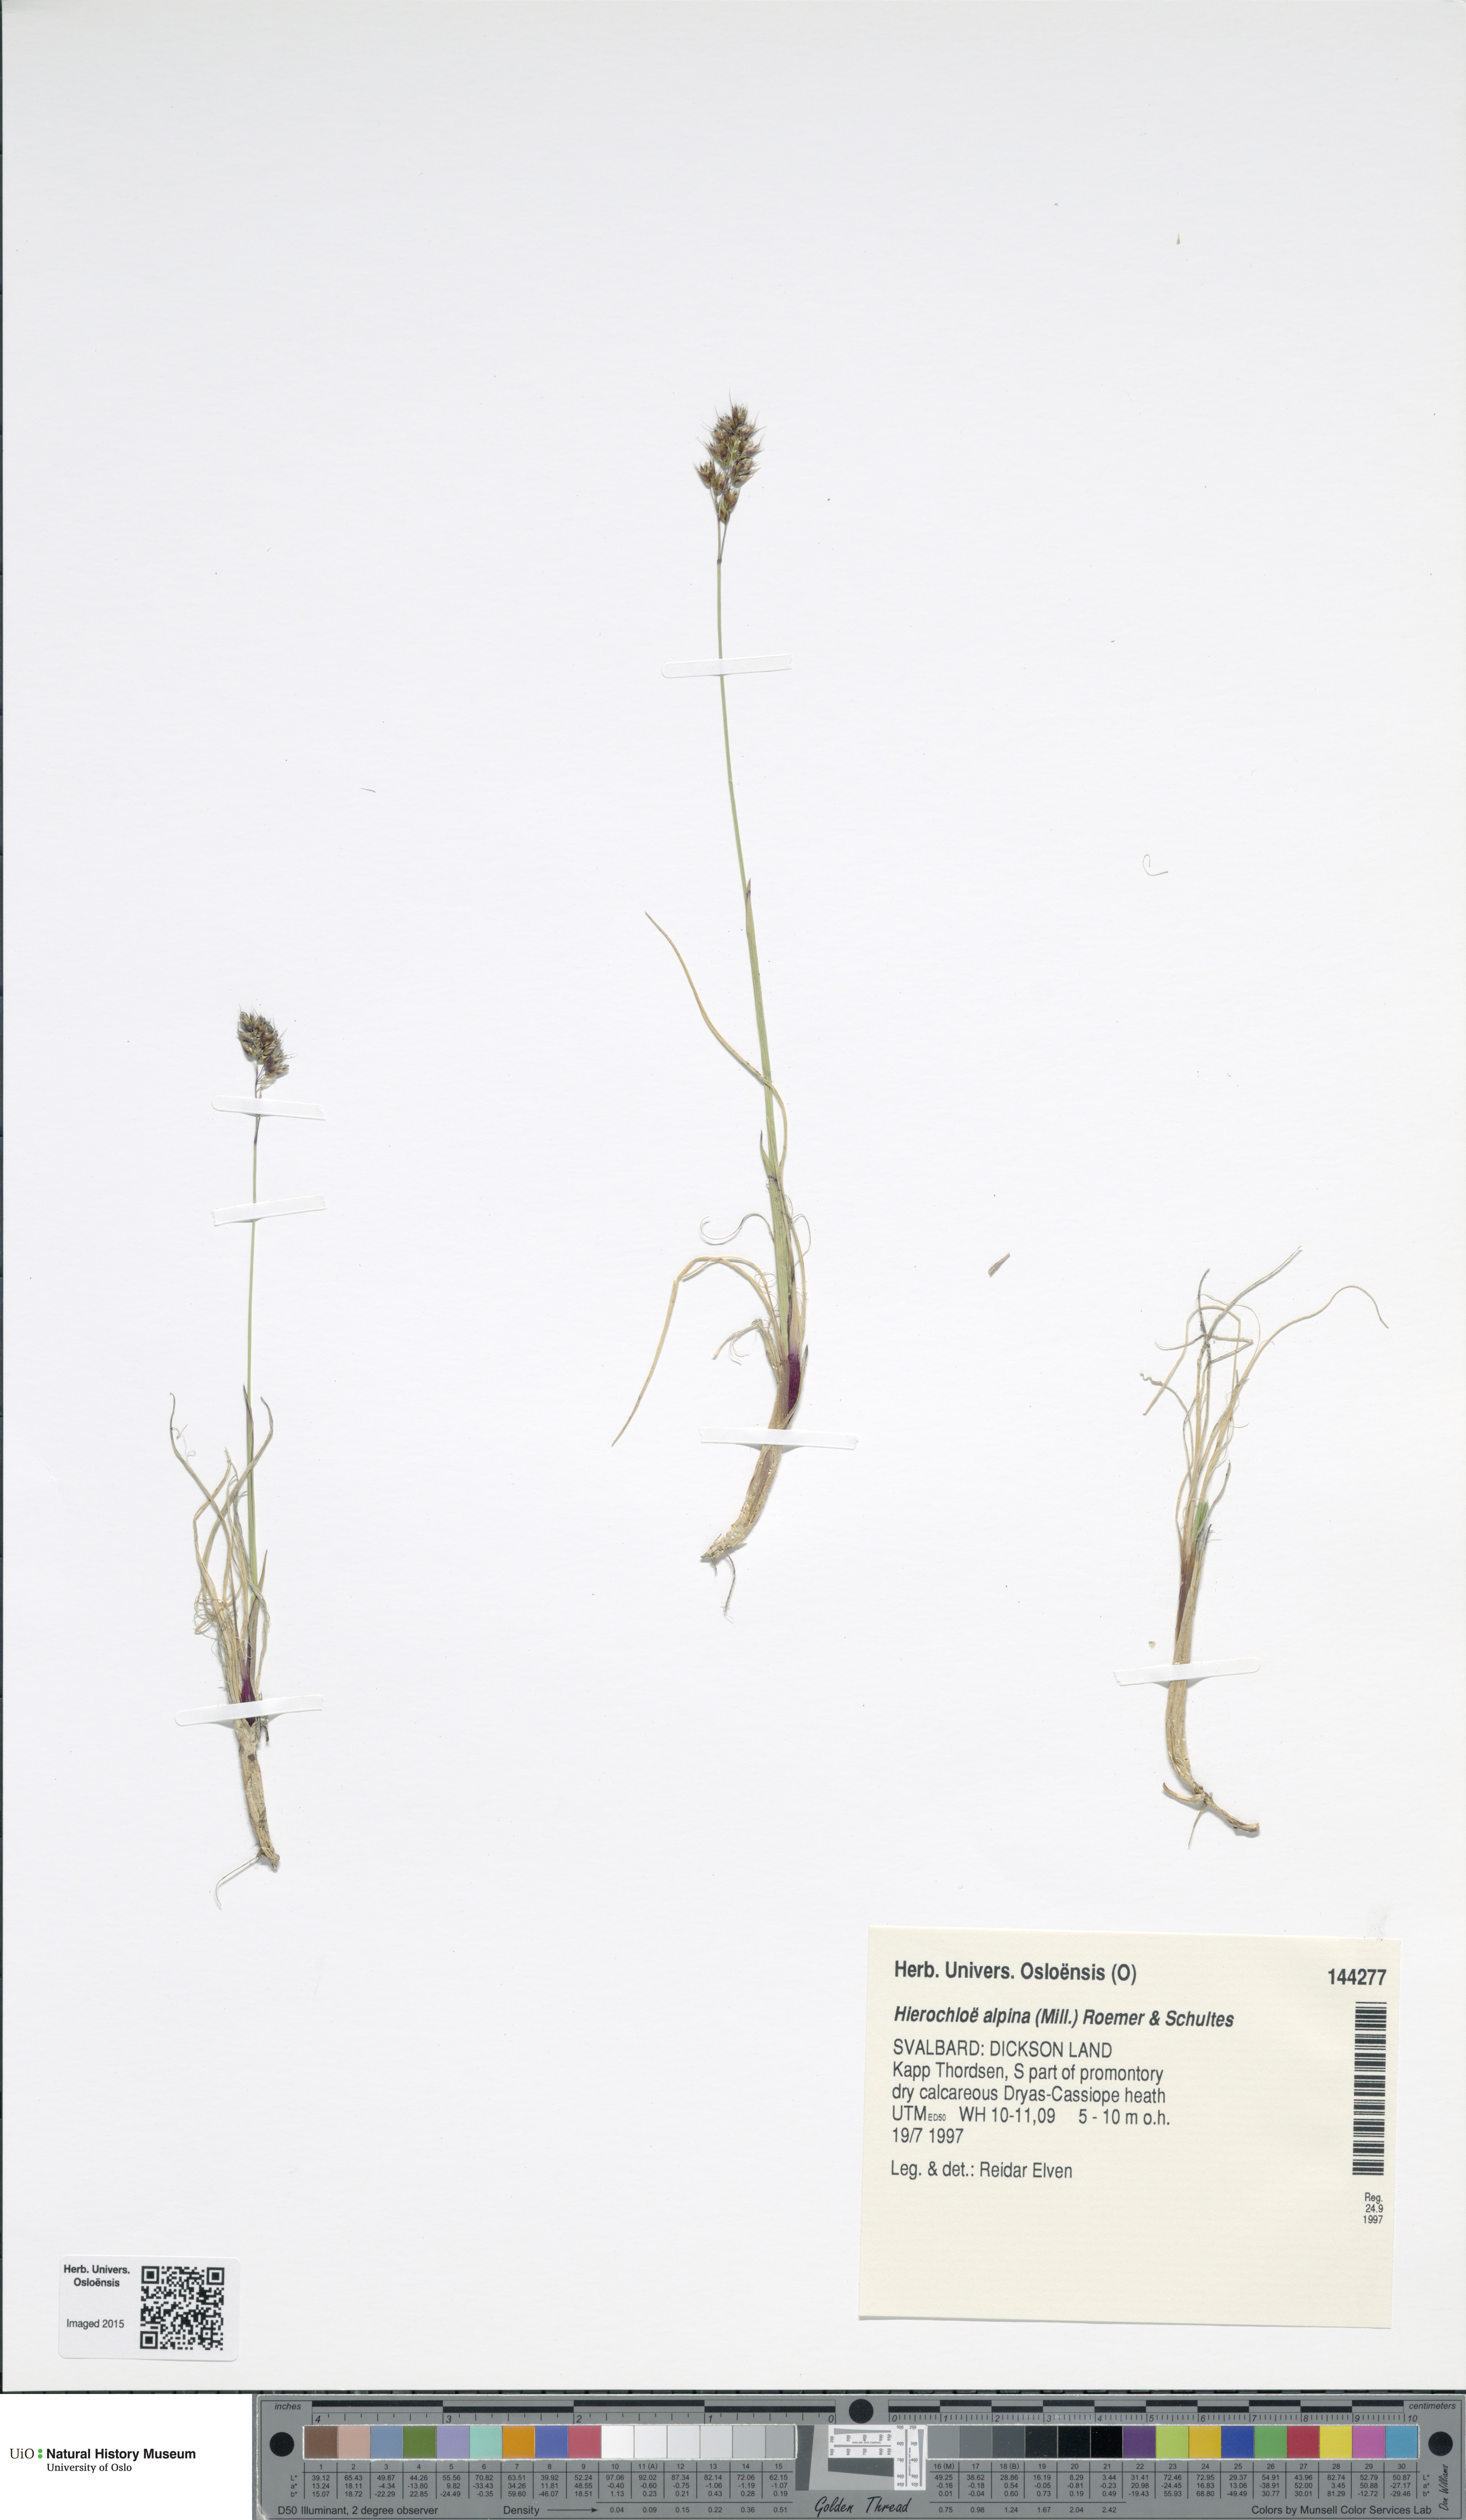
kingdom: Plantae
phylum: Tracheophyta
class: Liliopsida
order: Poales
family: Poaceae
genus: Anthoxanthum
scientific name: Anthoxanthum monticola
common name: Alpine sweetgrass
